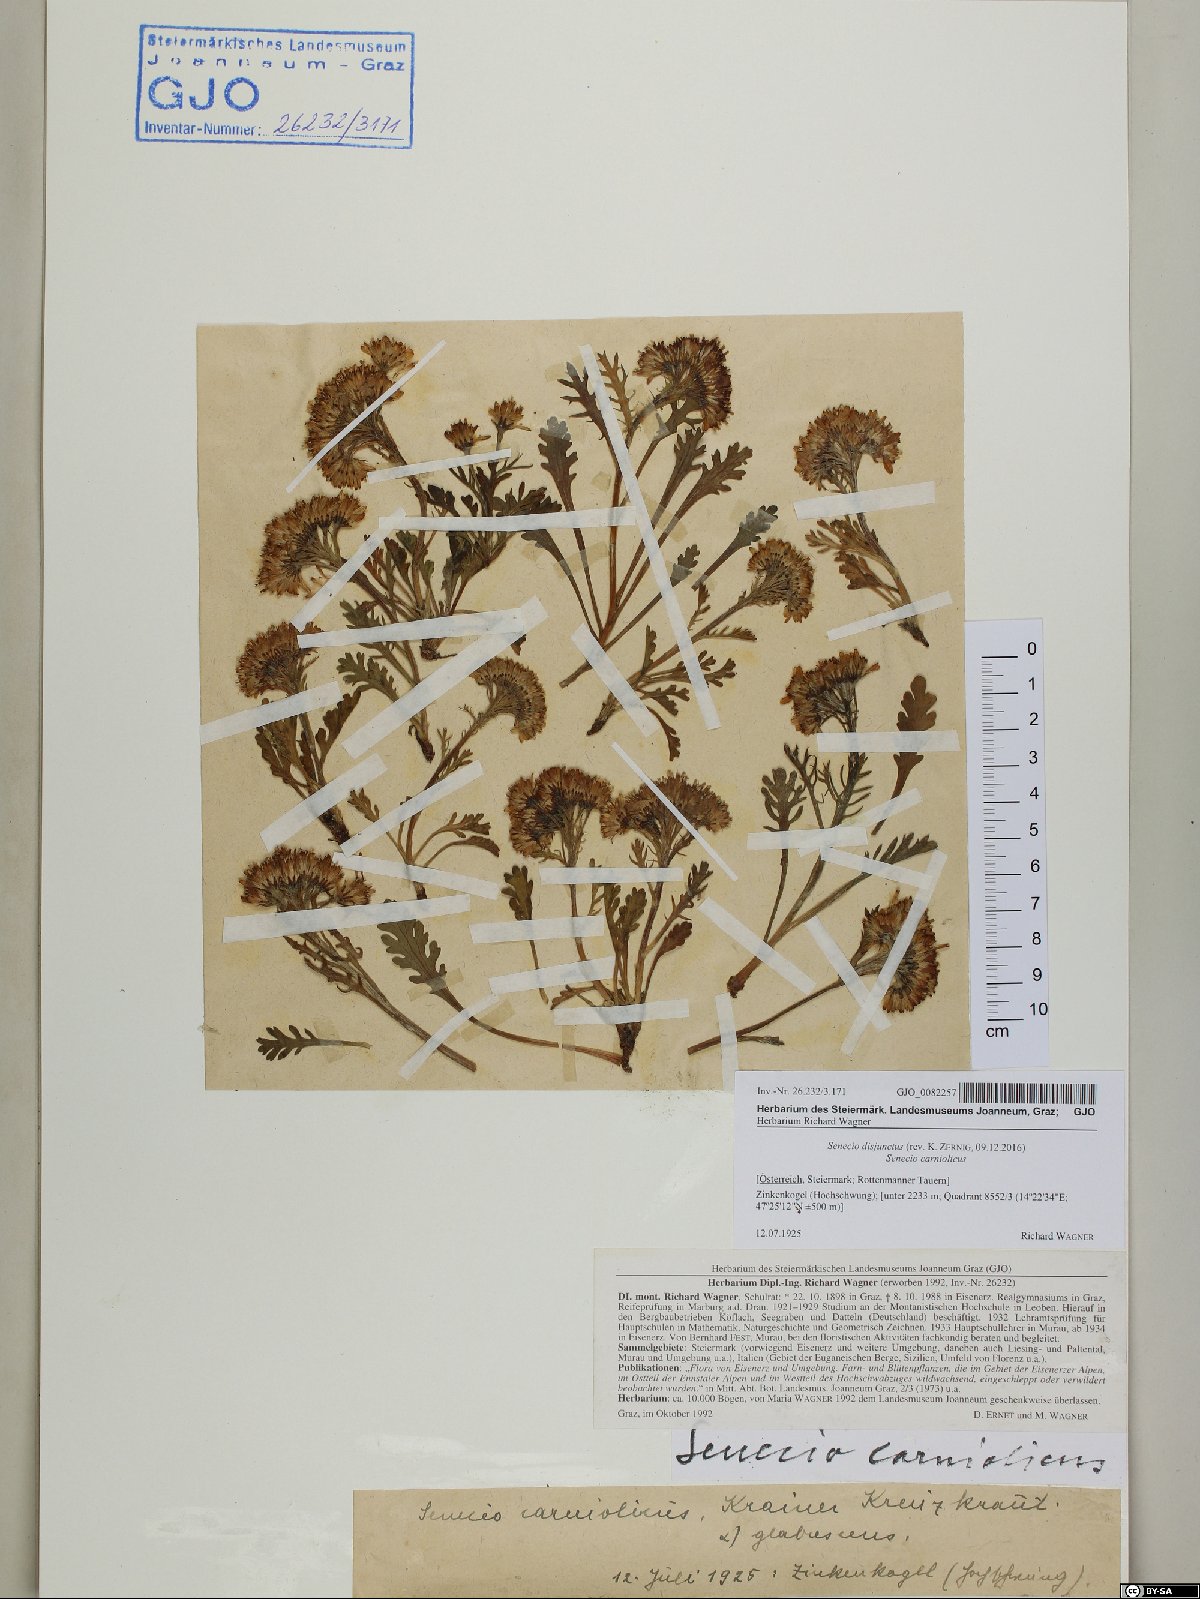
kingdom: Plantae
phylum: Tracheophyta
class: Magnoliopsida
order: Asterales
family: Asteraceae
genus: Jacobaea
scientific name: Jacobaea disjuncta
